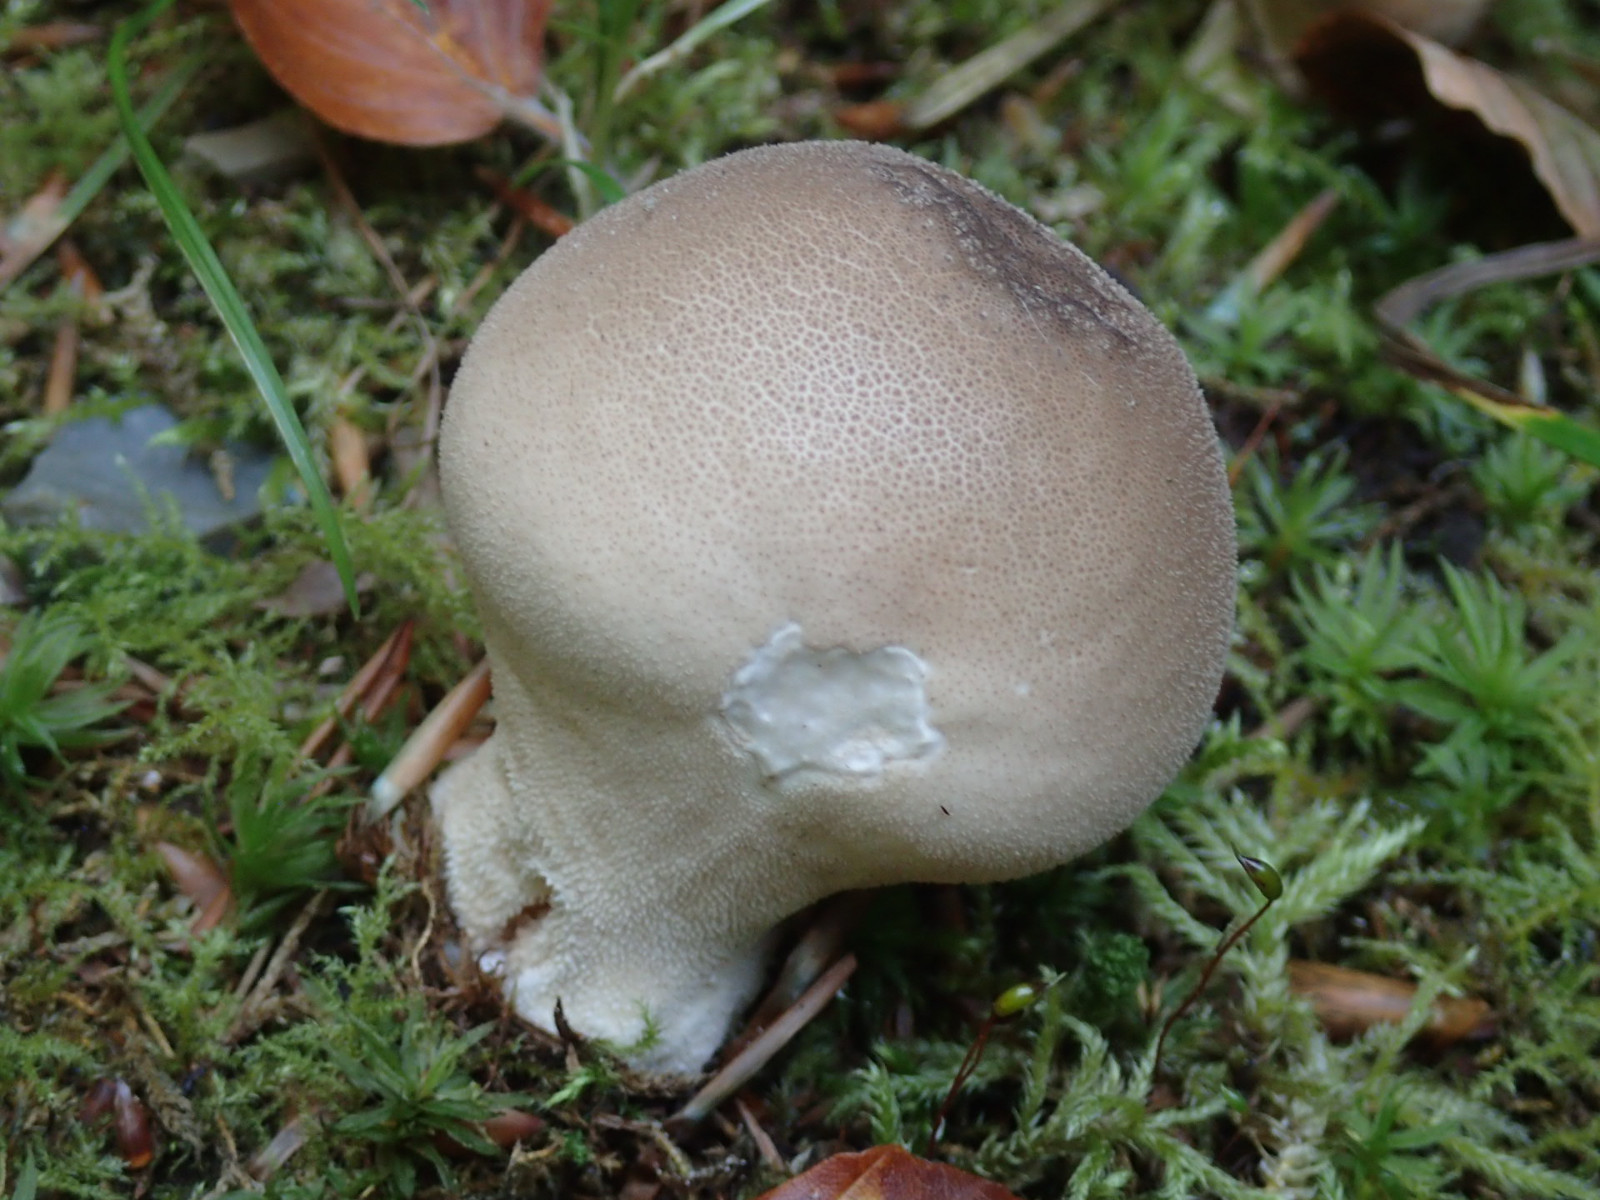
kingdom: Fungi
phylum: Basidiomycota
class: Agaricomycetes
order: Agaricales
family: Lycoperdaceae
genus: Apioperdon
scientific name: Apioperdon pyriforme
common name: pære-støvbold
